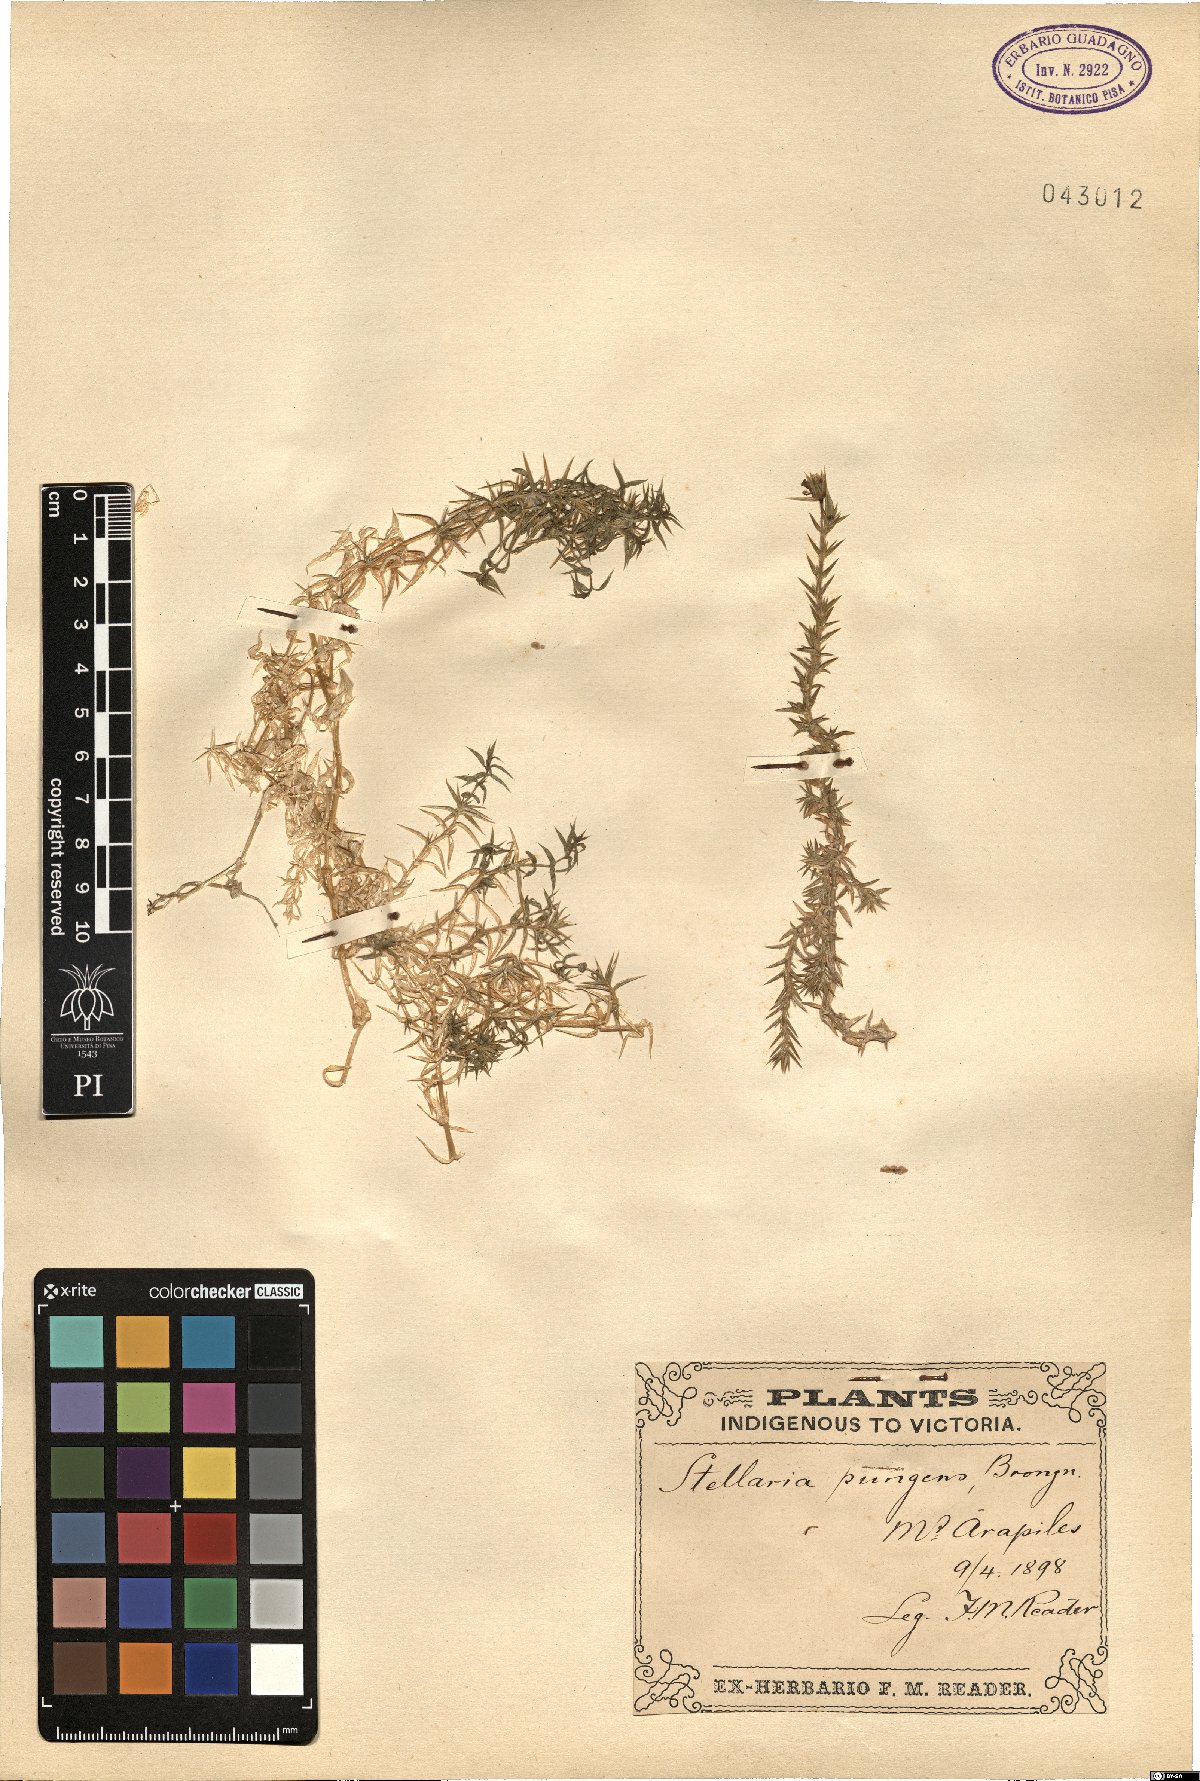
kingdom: Plantae
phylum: Tracheophyta
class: Magnoliopsida
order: Caryophyllales
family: Caryophyllaceae
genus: Stellaria
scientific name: Stellaria pungens
